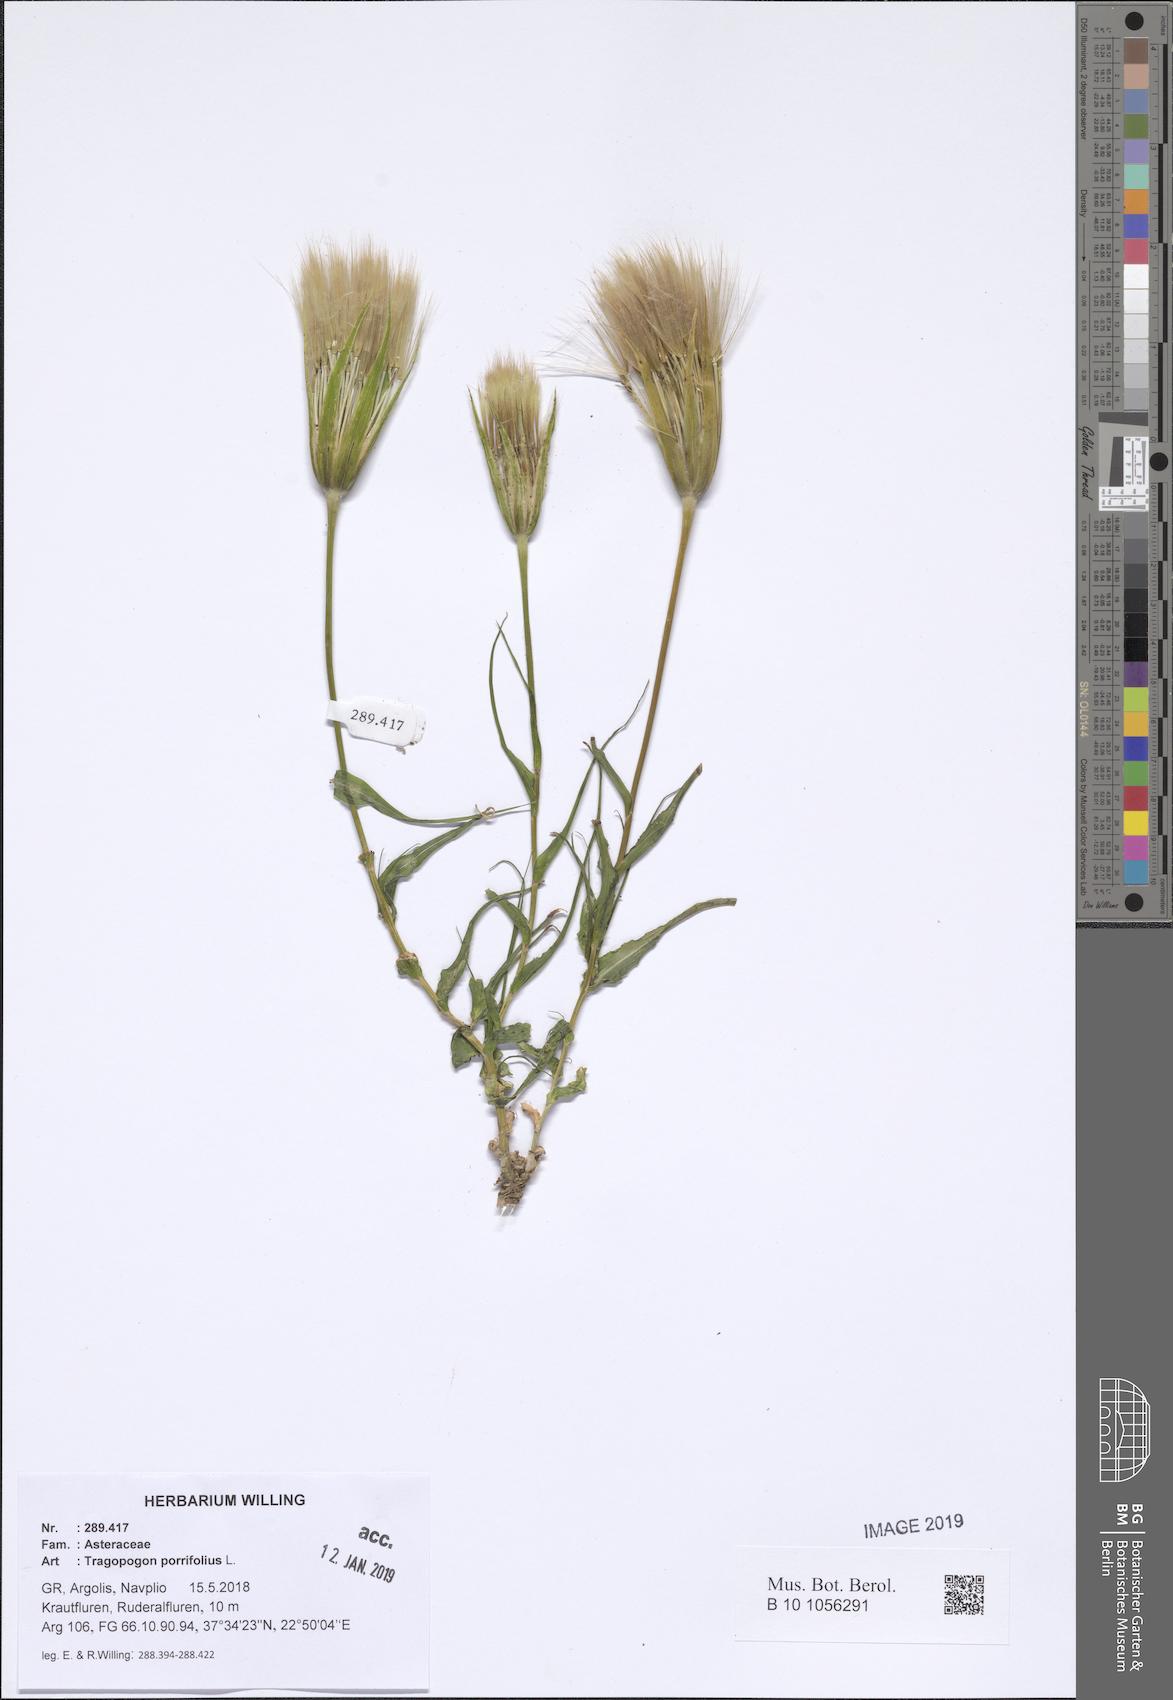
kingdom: Plantae
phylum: Tracheophyta
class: Magnoliopsida
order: Asterales
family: Asteraceae
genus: Tragopogon
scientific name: Tragopogon porrifolius
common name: Salsify
